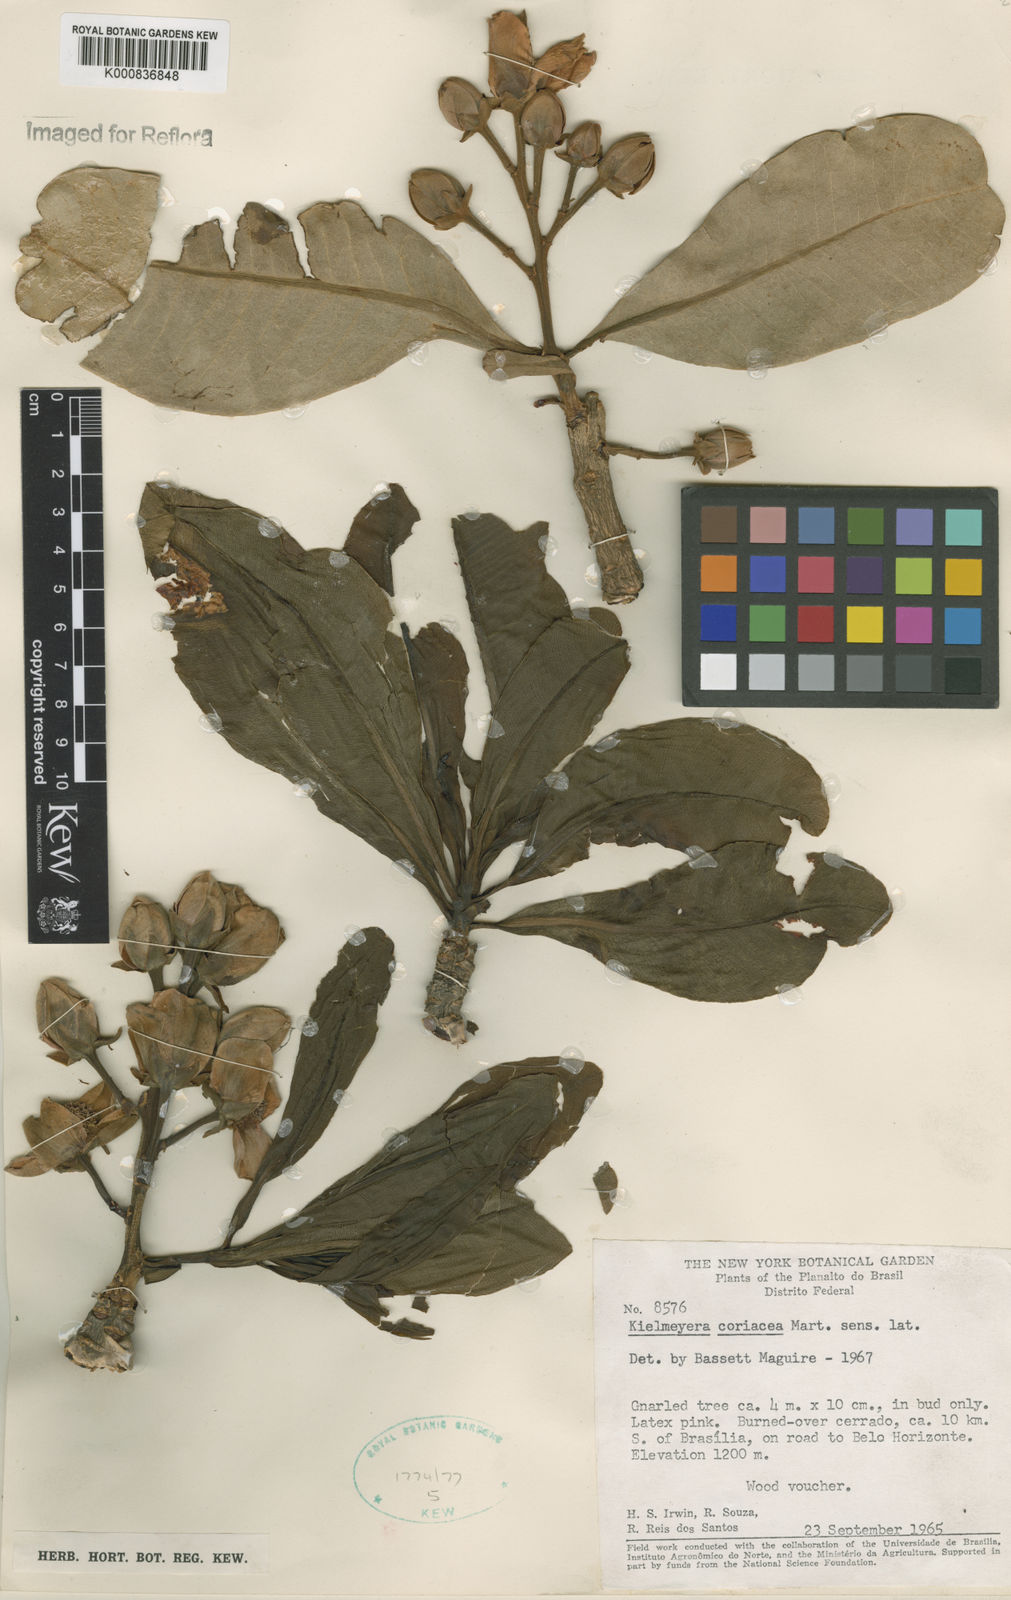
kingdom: Plantae
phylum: Tracheophyta
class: Magnoliopsida
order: Malpighiales
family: Calophyllaceae
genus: Kielmeyera
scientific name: Kielmeyera coriacea
